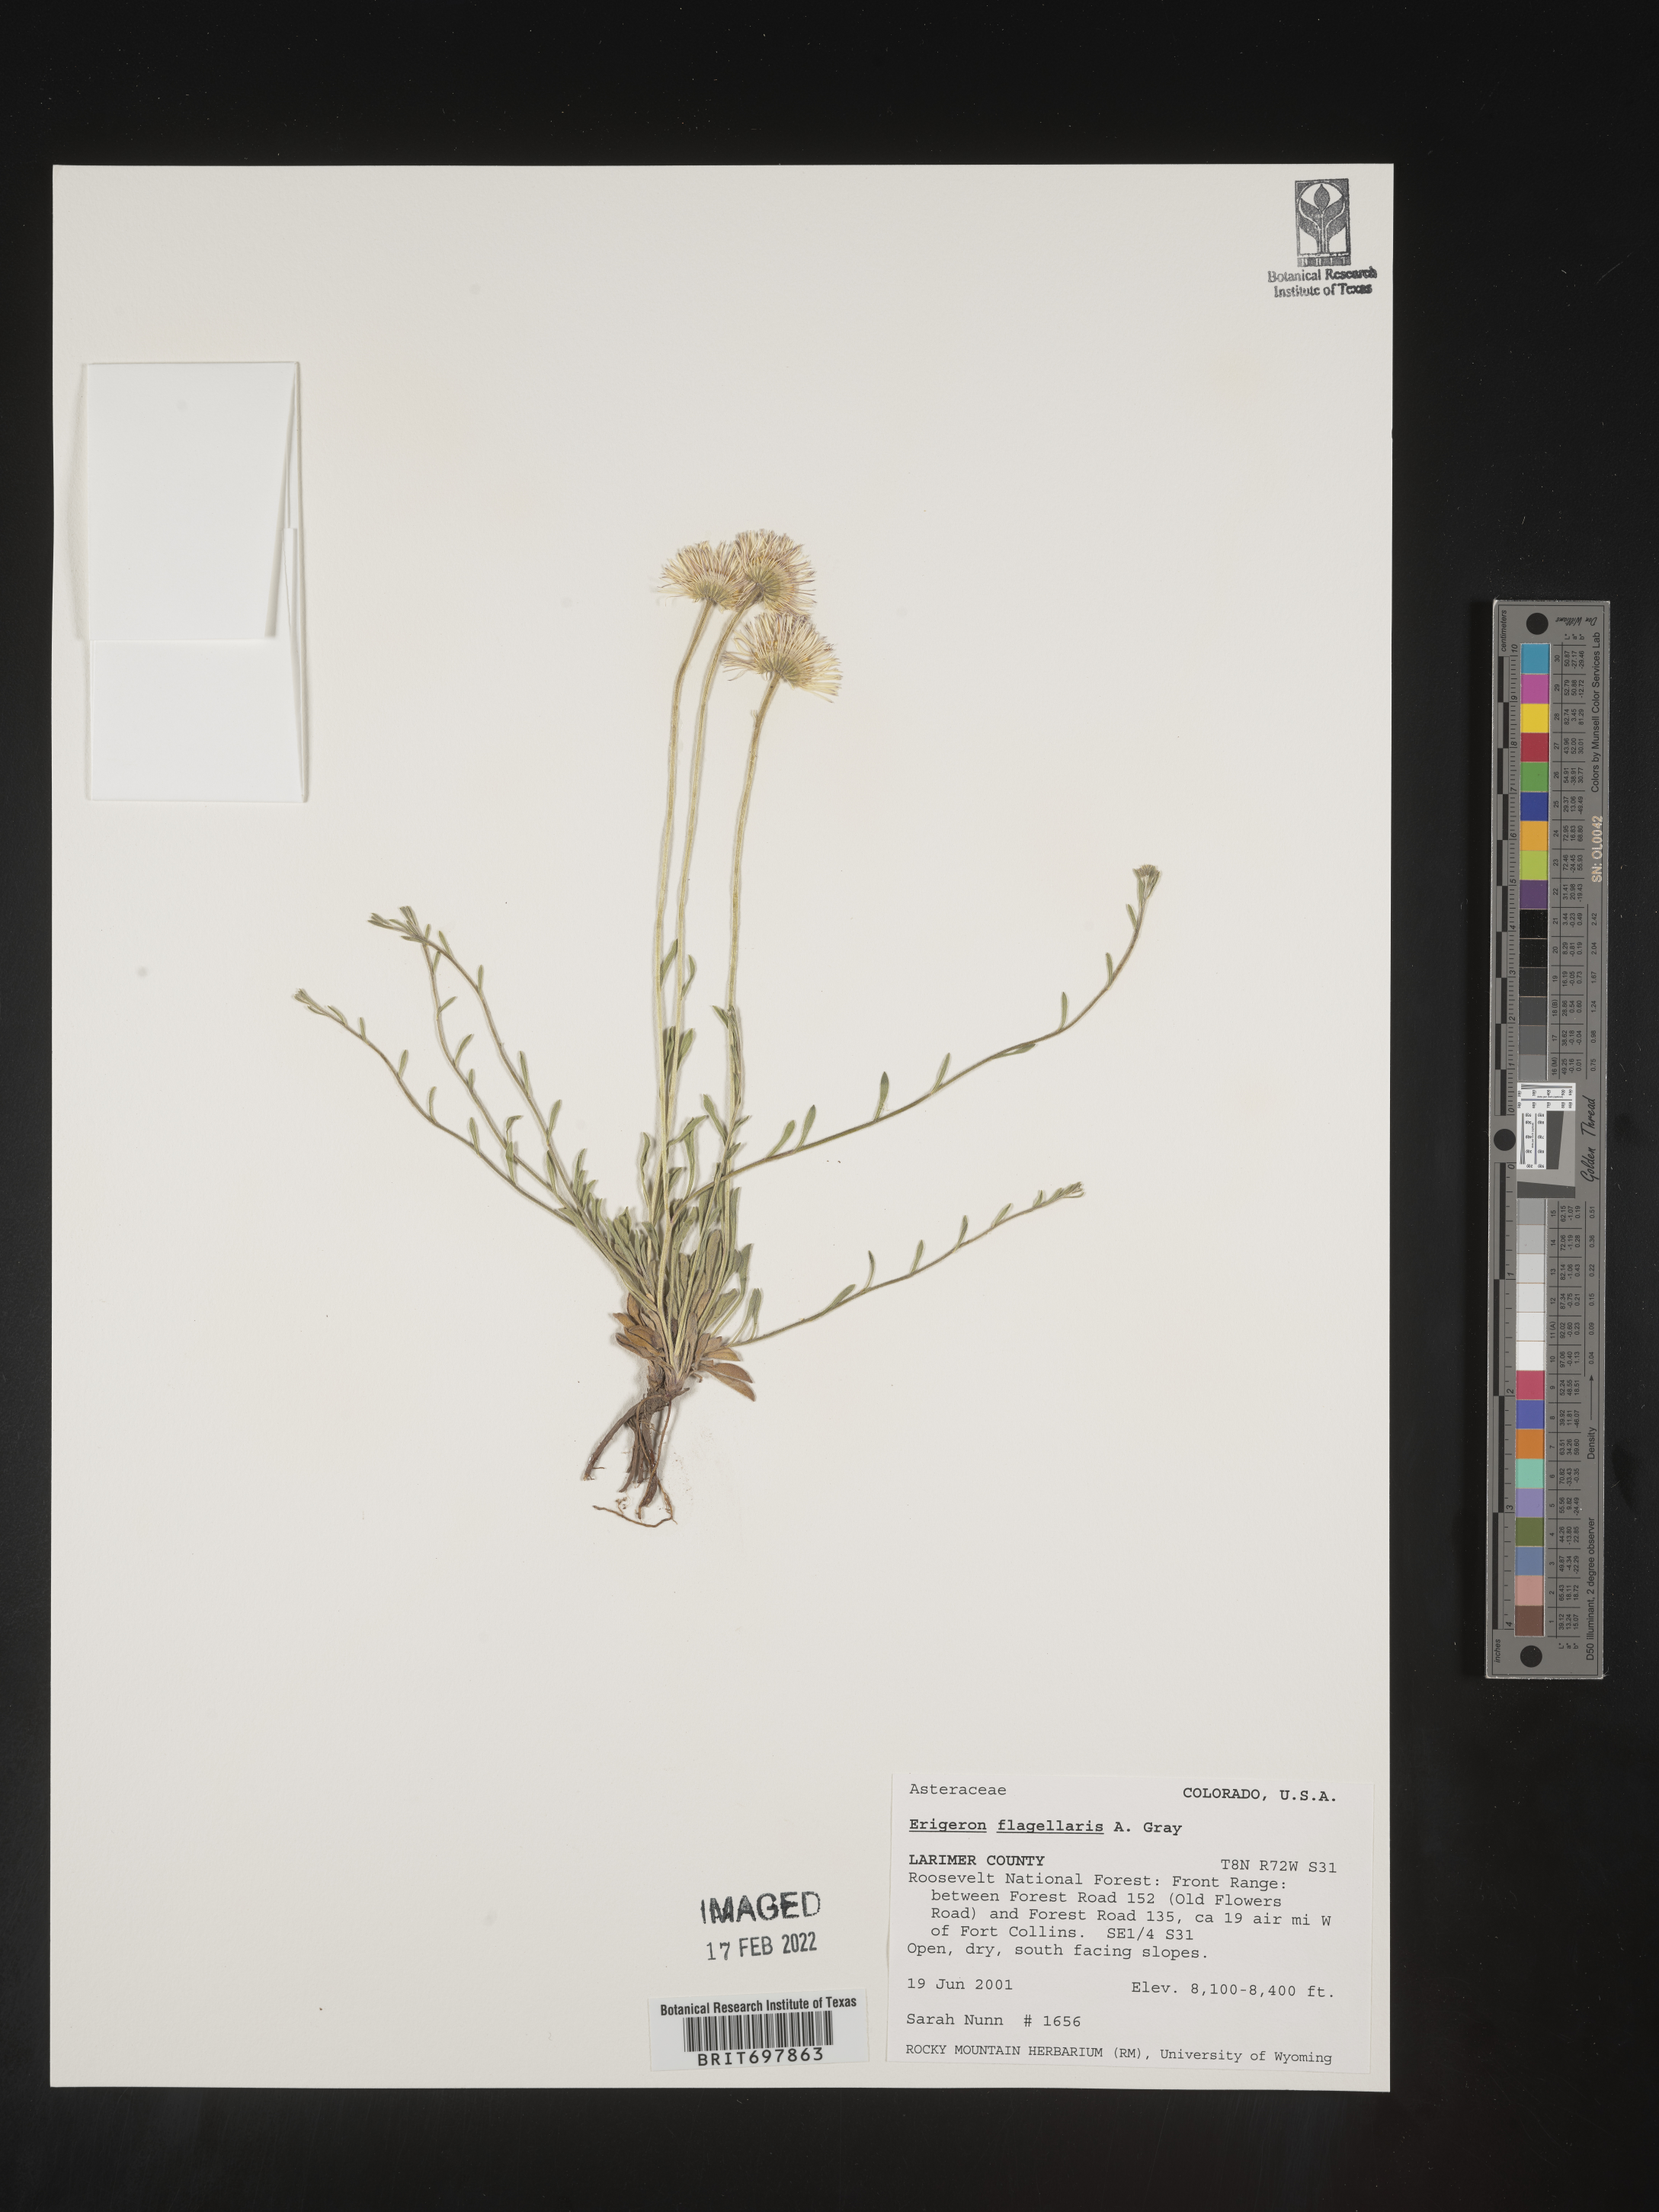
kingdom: Plantae
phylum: Tracheophyta
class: Magnoliopsida
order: Asterales
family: Asteraceae
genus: Erigeron
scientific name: Erigeron flagellaris
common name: Running fleabane
